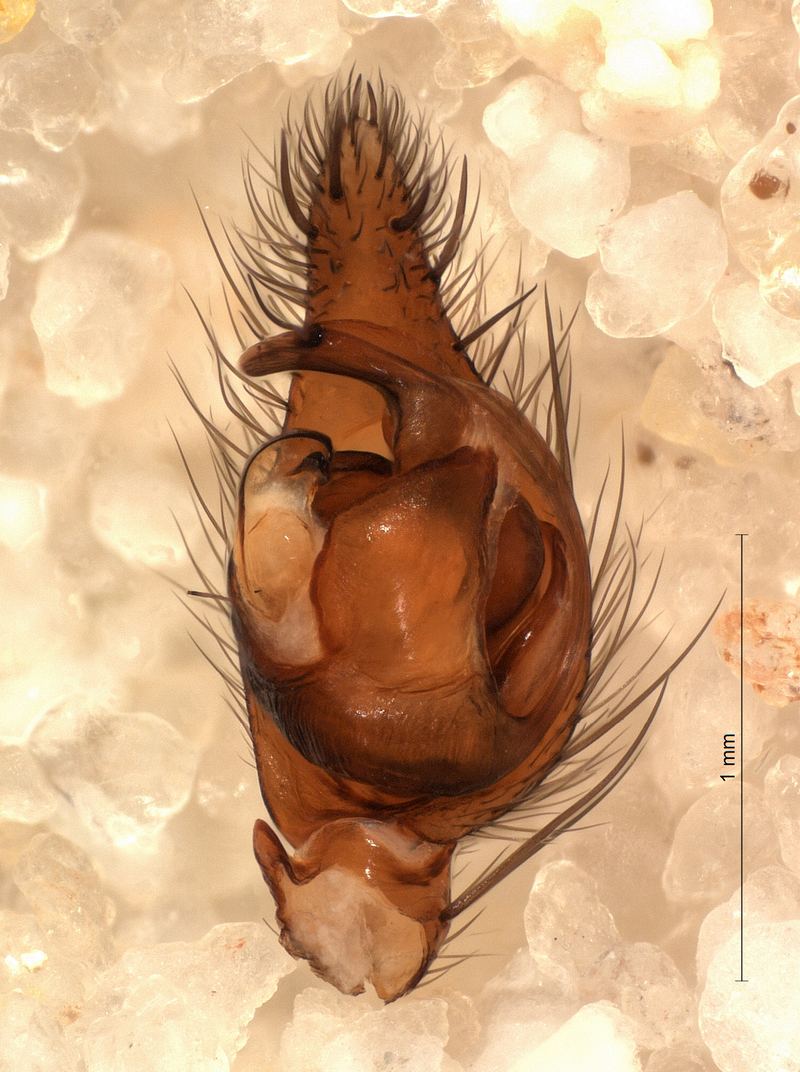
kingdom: Animalia
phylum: Arthropoda
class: Arachnida
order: Araneae
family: Agelenidae
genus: Inermocoelotes
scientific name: Inermocoelotes inermis
